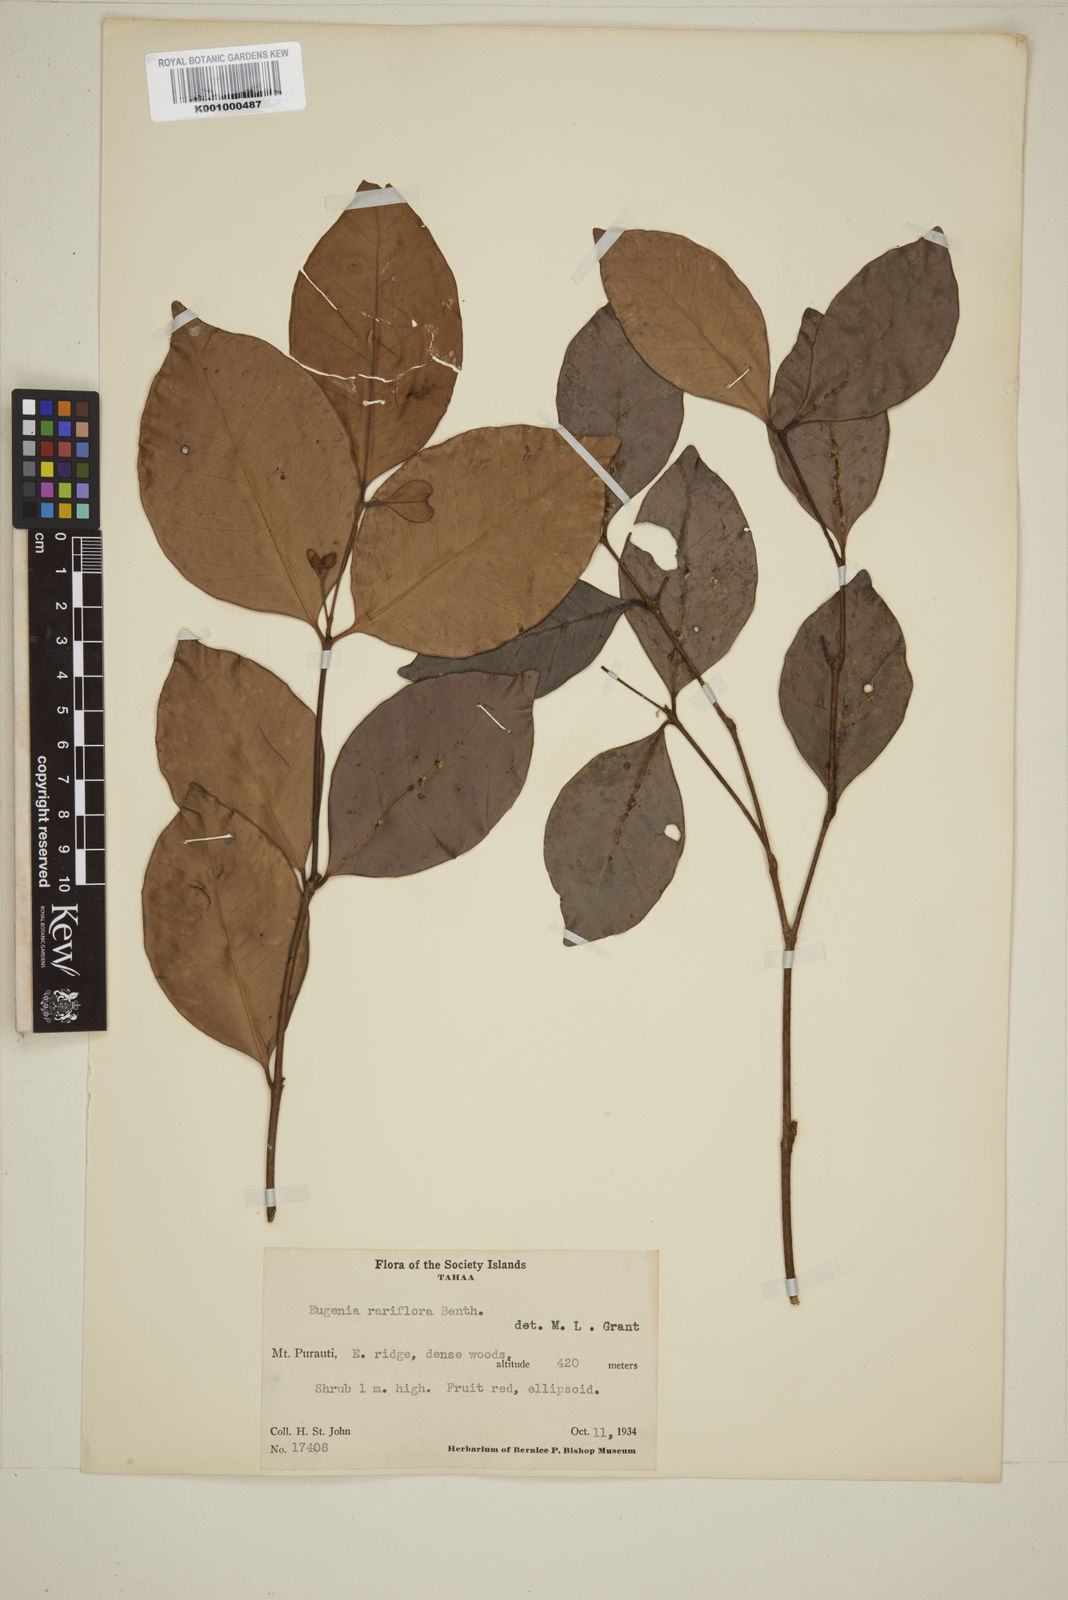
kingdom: Plantae
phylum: Tracheophyta
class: Magnoliopsida
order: Myrtales
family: Myrtaceae
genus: Eugenia
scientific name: Eugenia reinwardtiana
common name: Cedar bay-cherry
